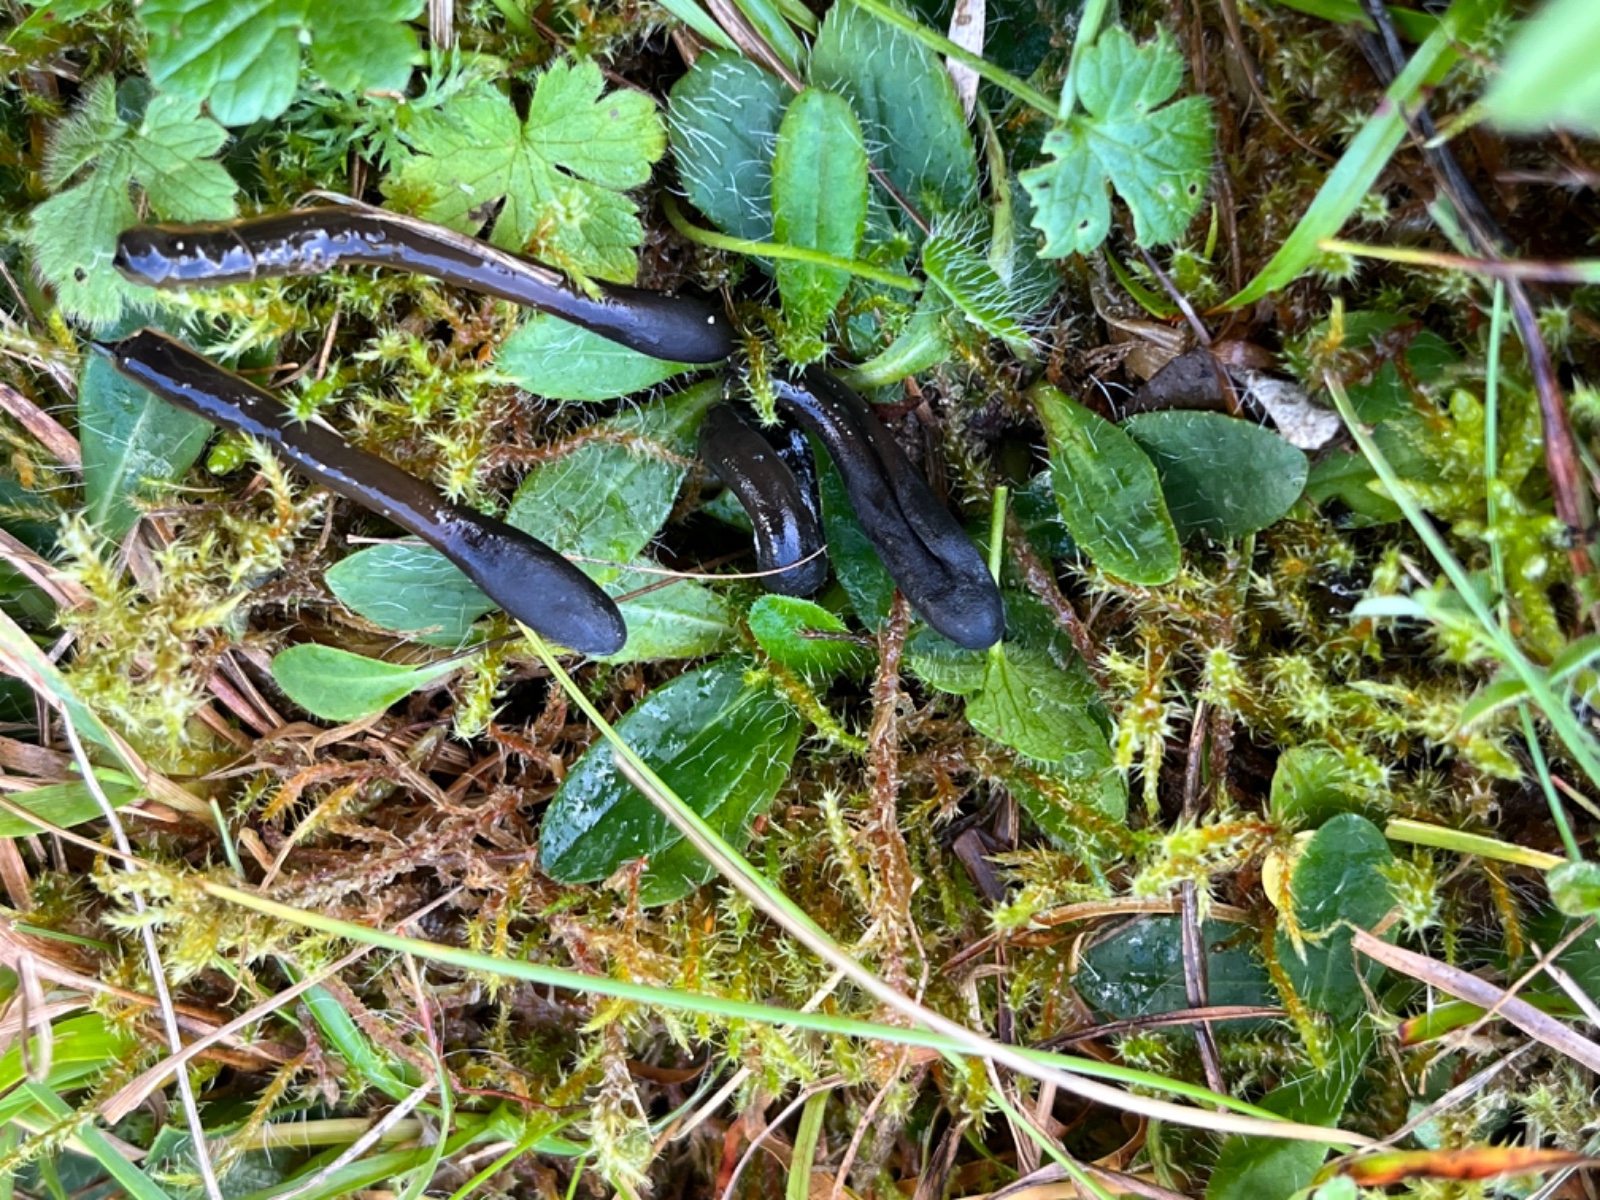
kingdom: Fungi
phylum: Ascomycota
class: Geoglossomycetes
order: Geoglossales
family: Geoglossaceae
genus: Glutinoglossum
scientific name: Glutinoglossum glutinosum
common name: slimet jordtunge
